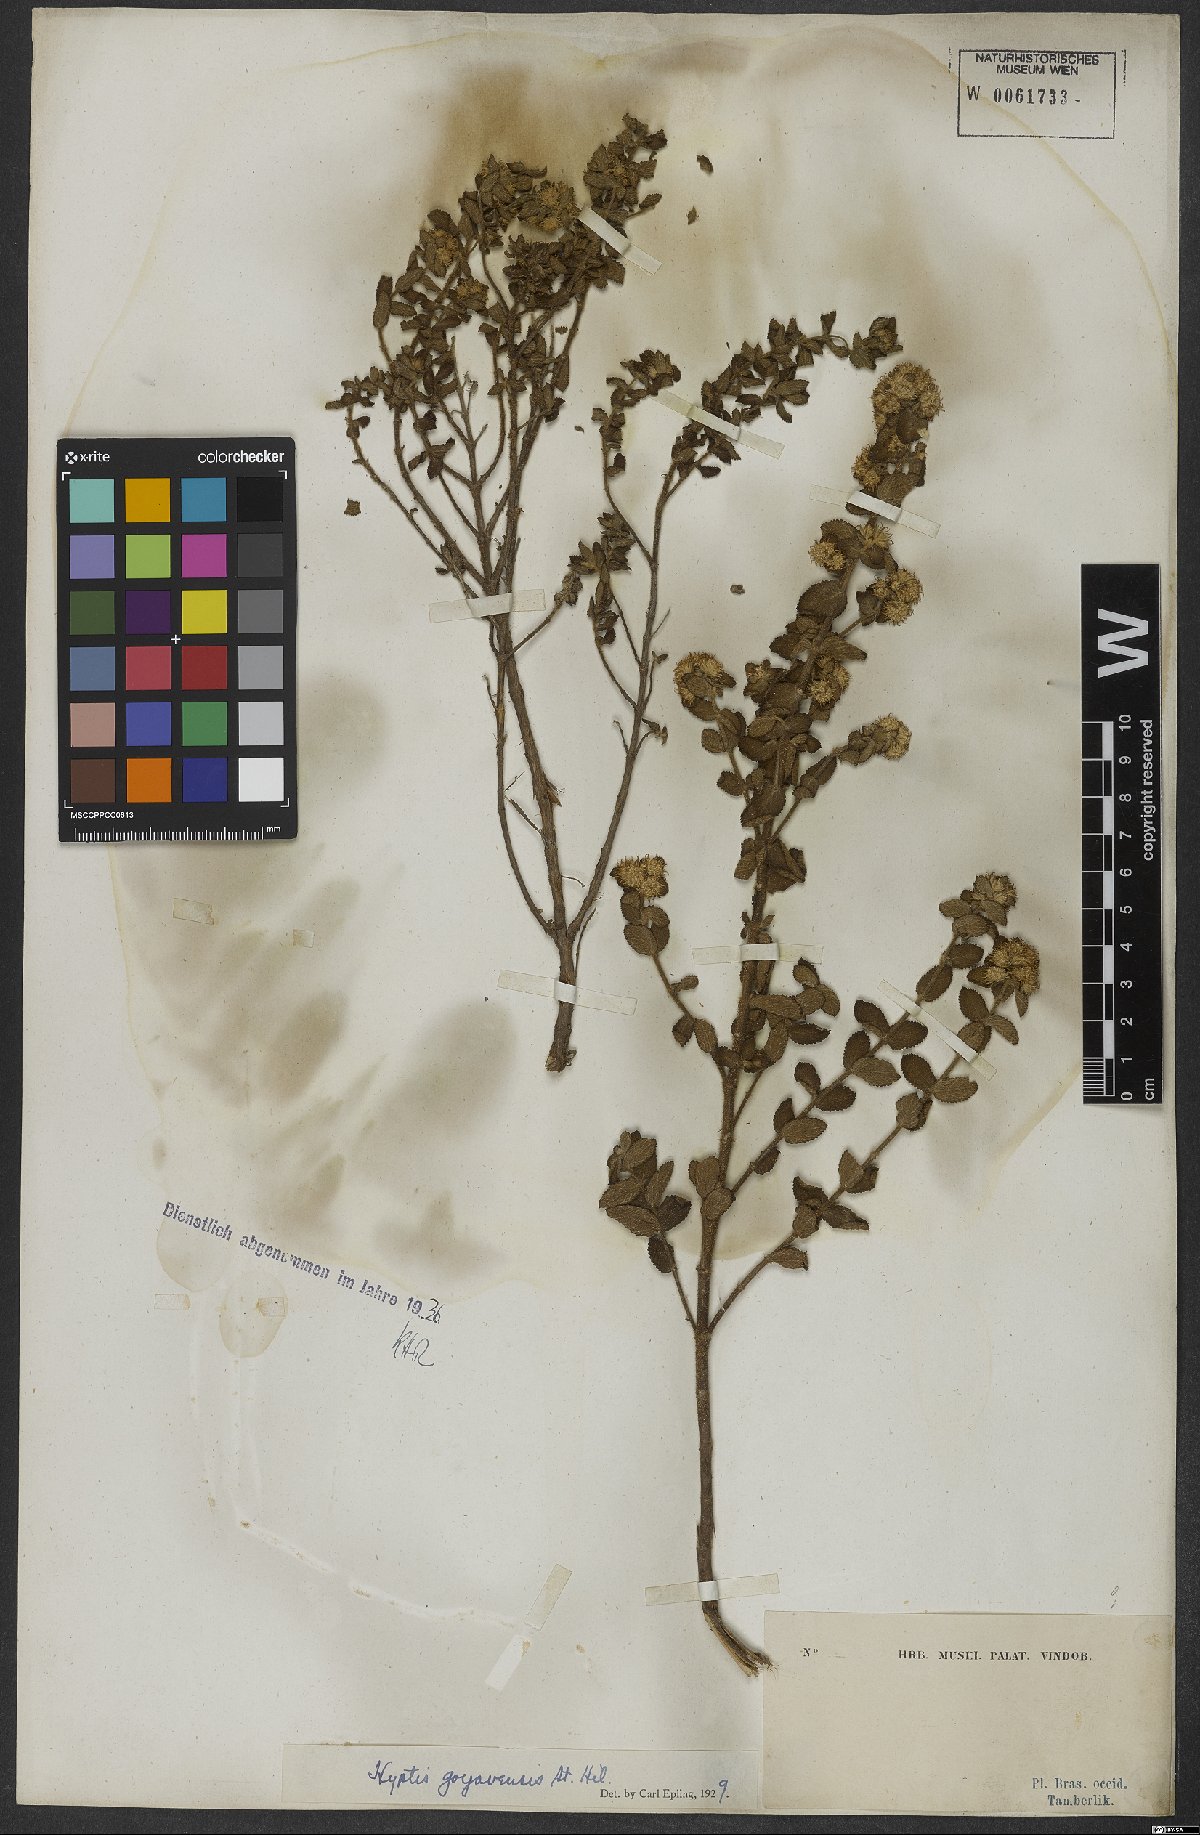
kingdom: Plantae
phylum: Tracheophyta
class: Magnoliopsida
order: Lamiales
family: Lamiaceae
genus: Hyptis
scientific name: Hyptis crenata
